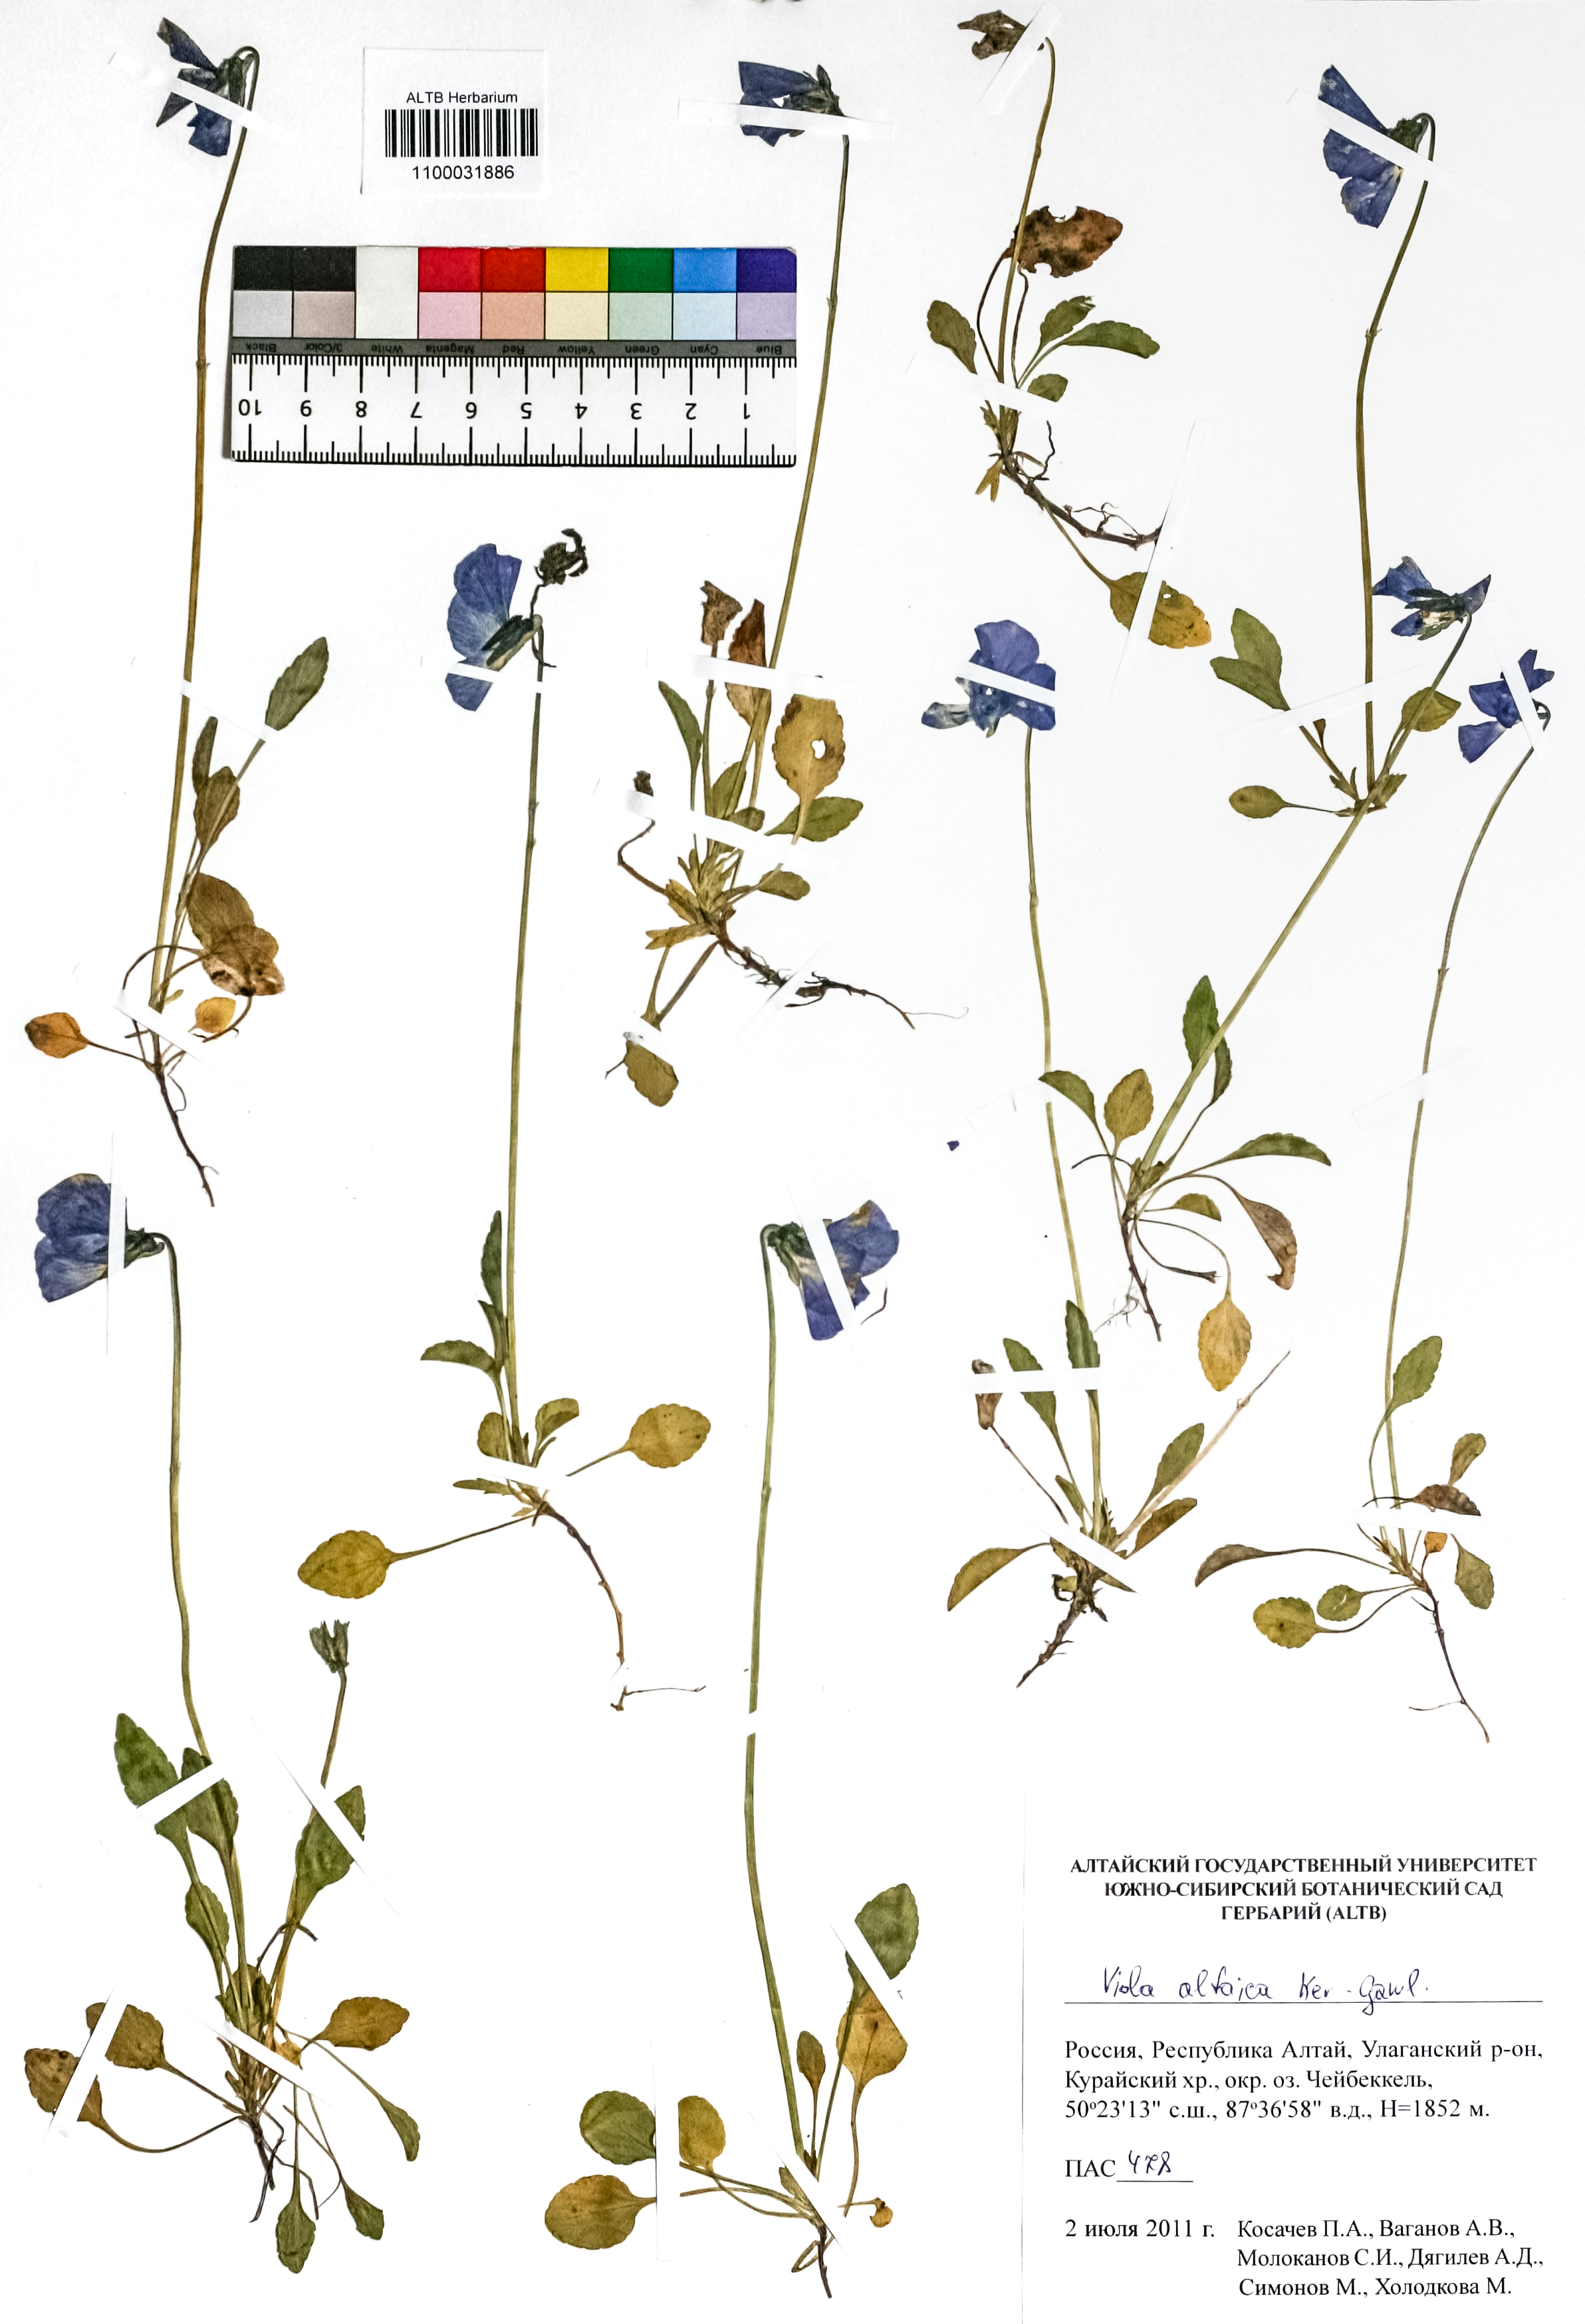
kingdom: Plantae
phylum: Tracheophyta
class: Magnoliopsida
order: Malpighiales
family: Violaceae
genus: Viola
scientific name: Viola altaica
